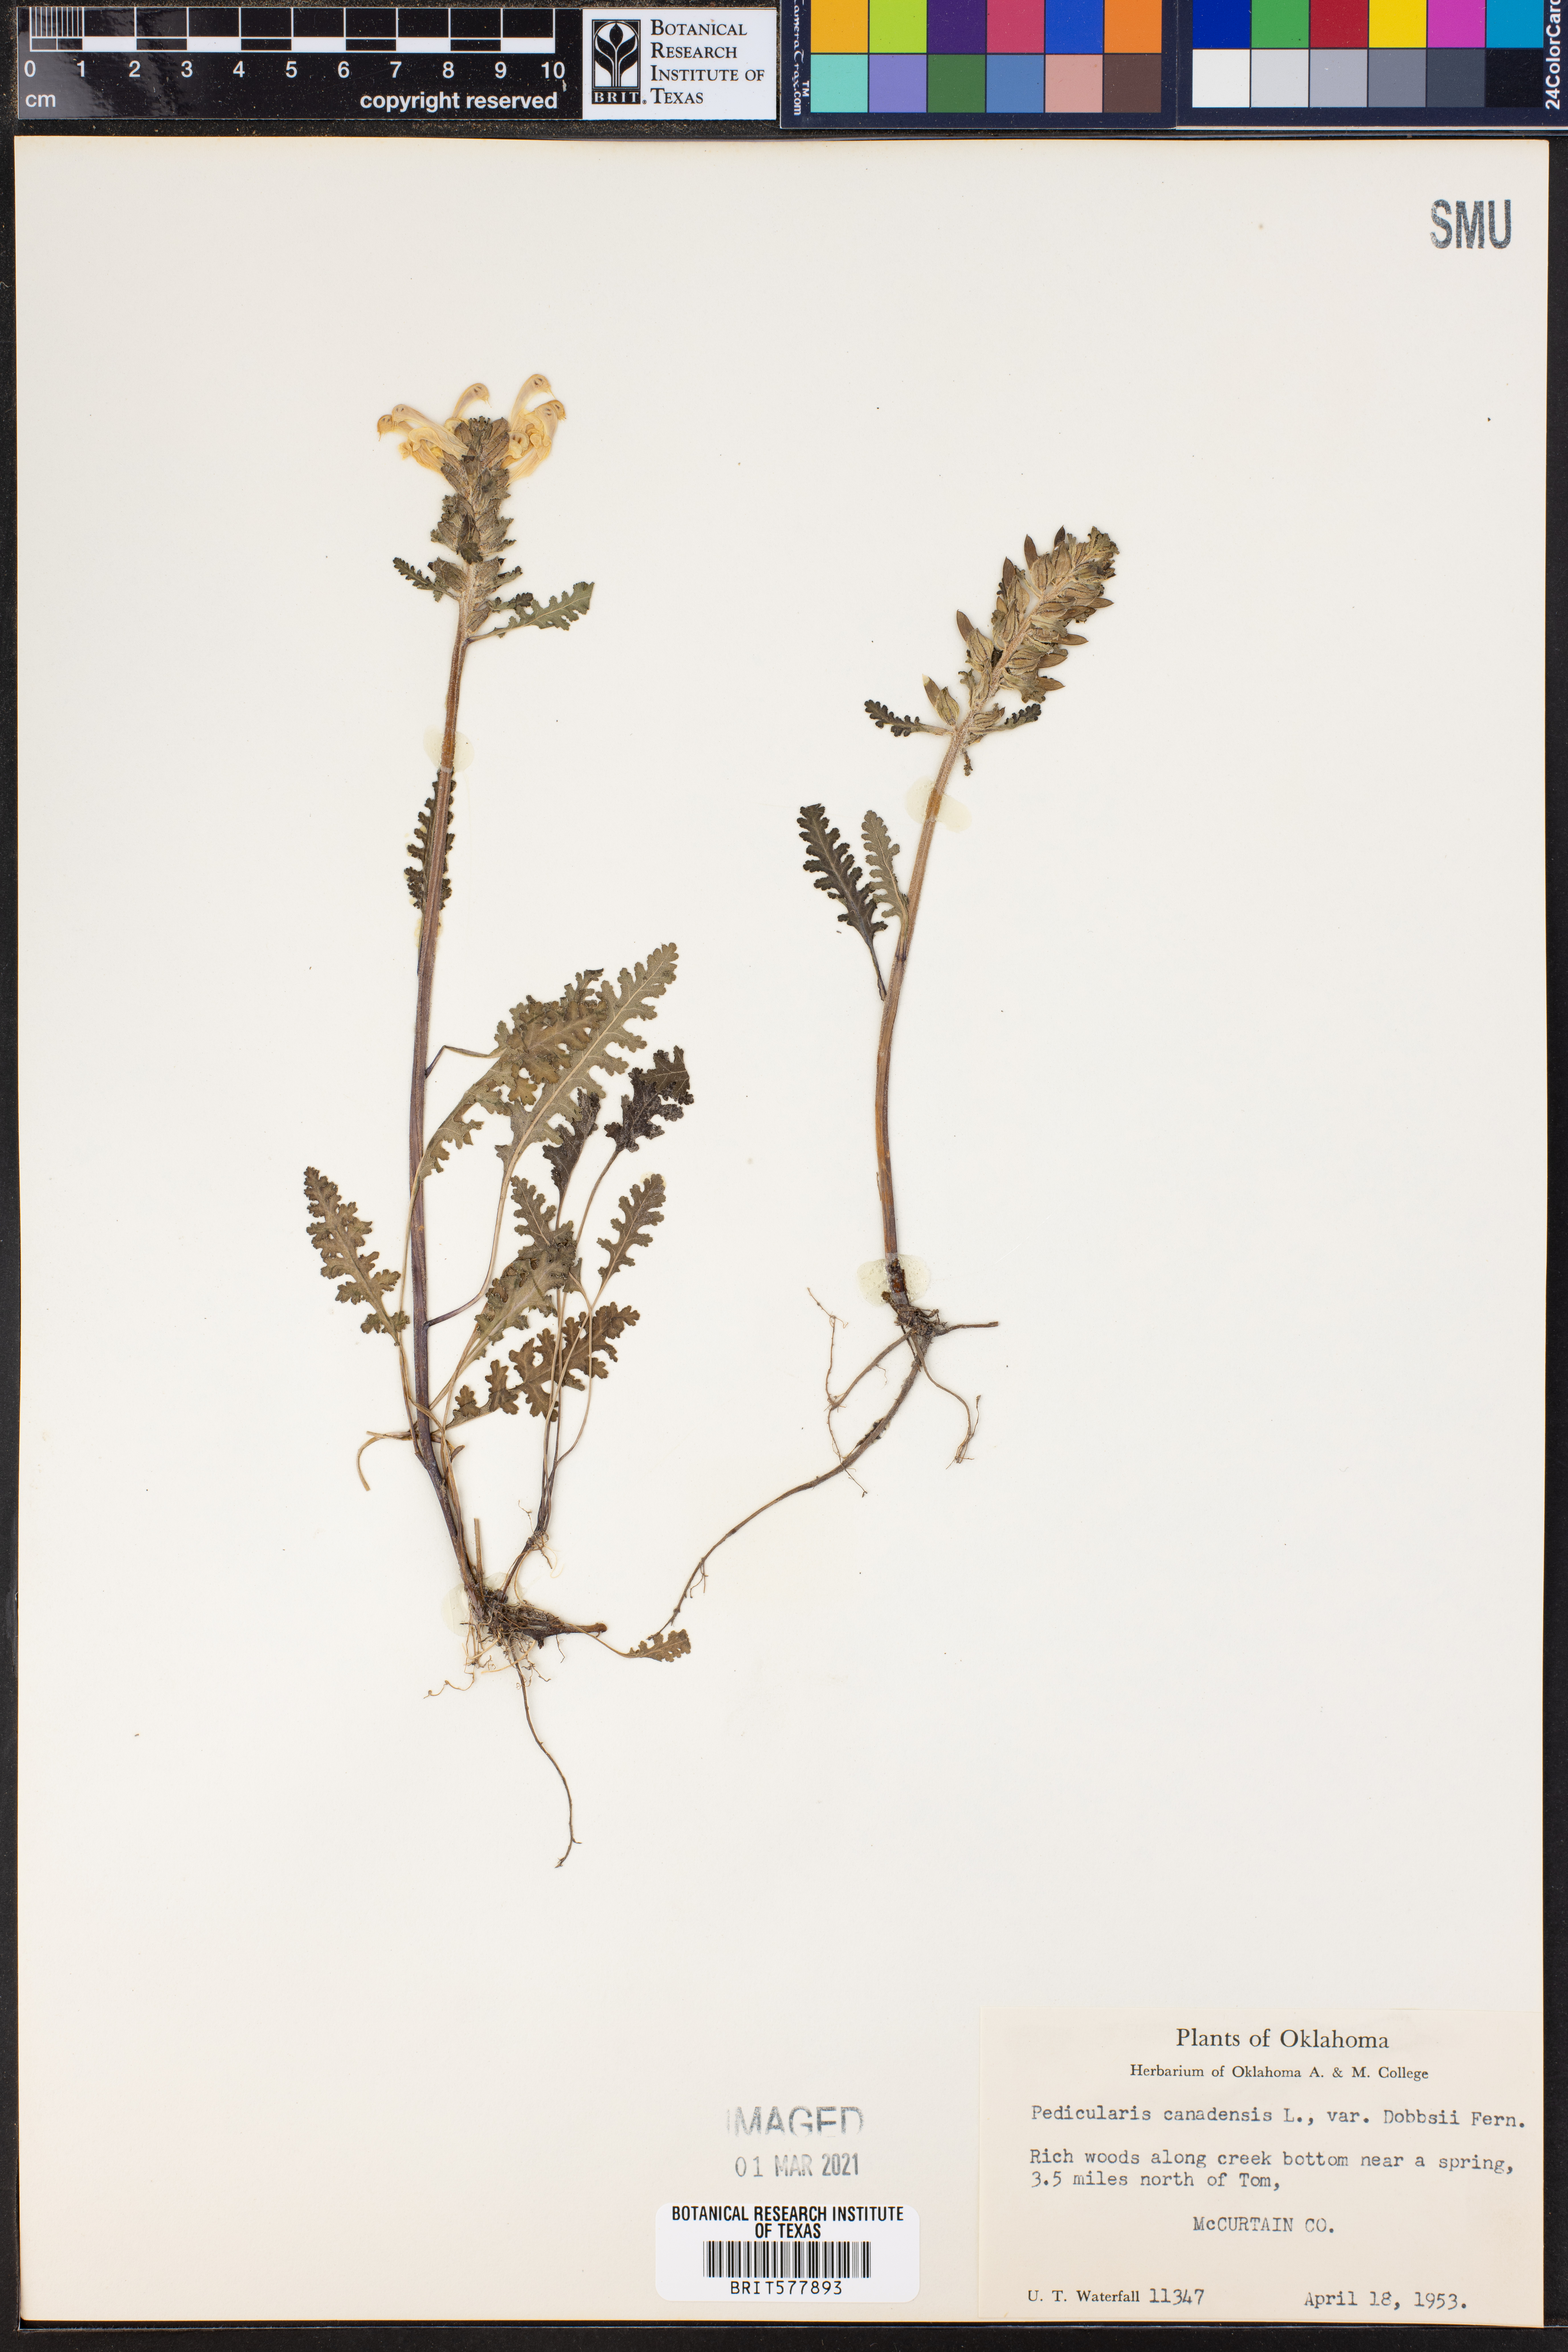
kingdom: Plantae
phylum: Tracheophyta
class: Magnoliopsida
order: Lamiales
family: Orobanchaceae
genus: Pedicularis
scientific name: Pedicularis canadensis
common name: Early lousewort
